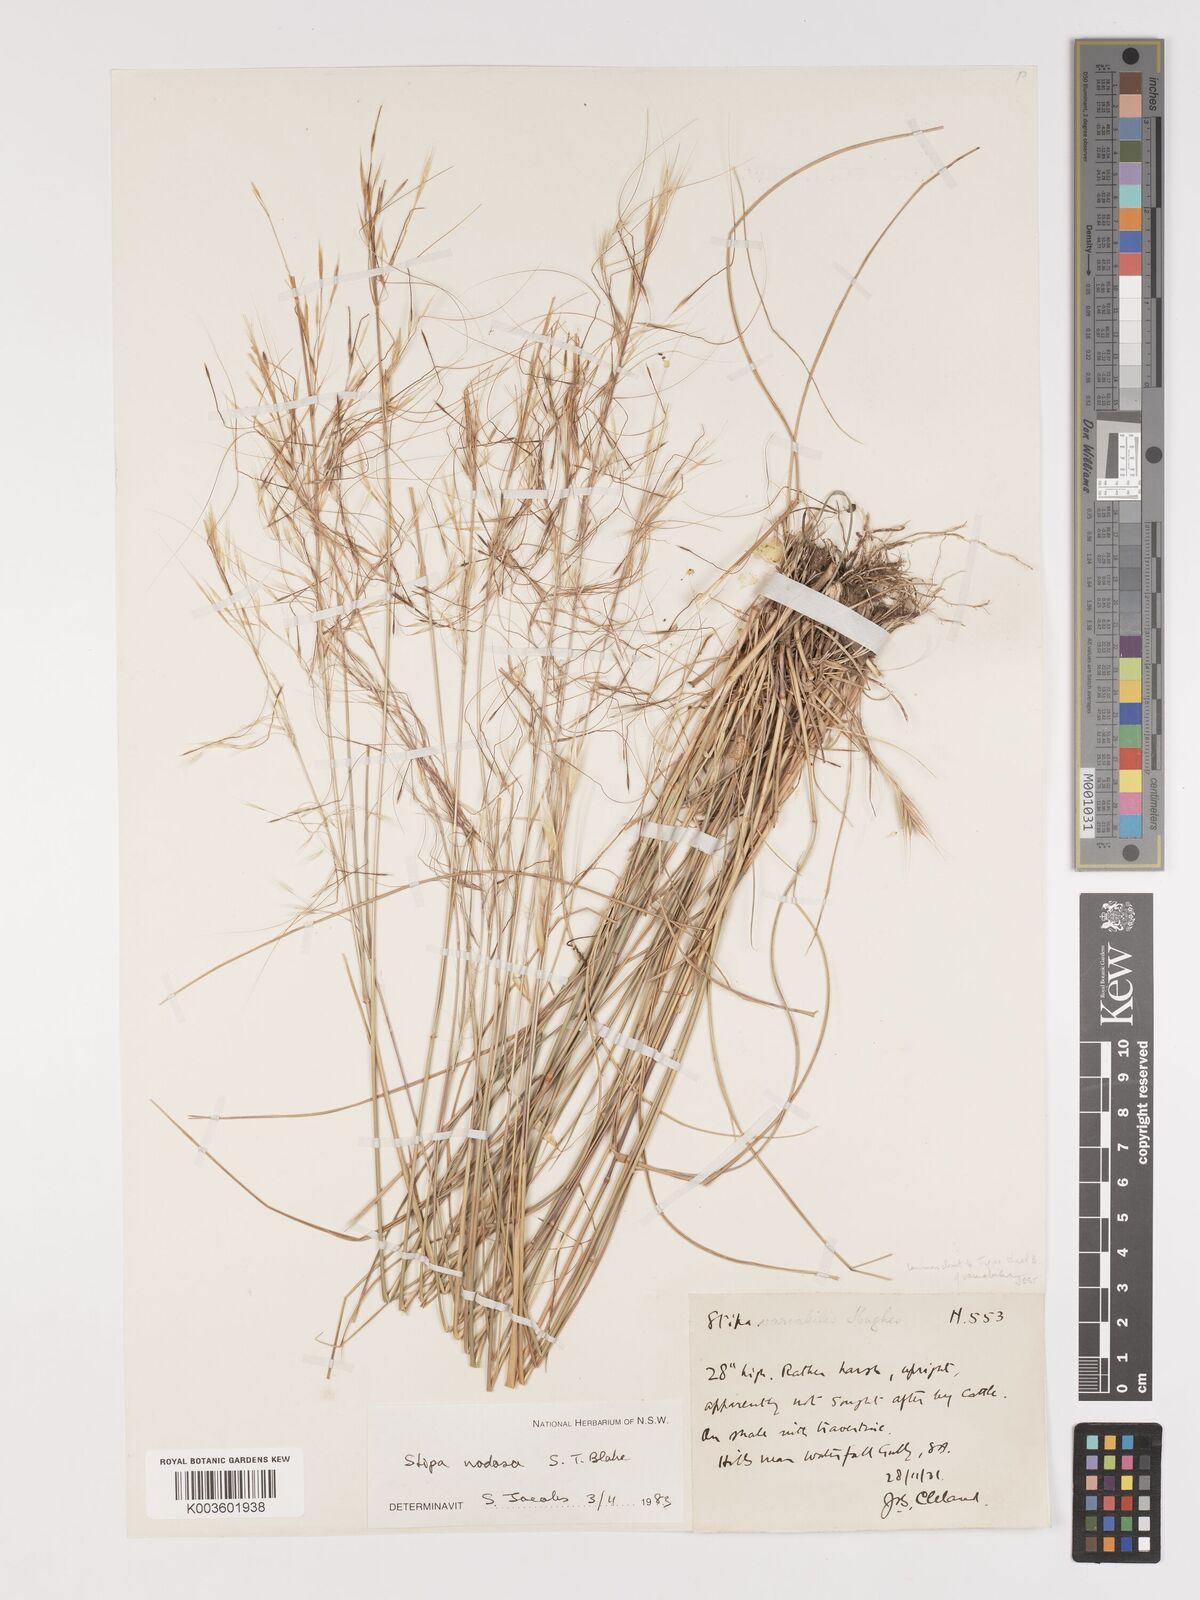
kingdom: Plantae
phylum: Tracheophyta
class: Liliopsida
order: Poales
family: Poaceae
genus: Austrostipa
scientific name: Austrostipa nodosa
